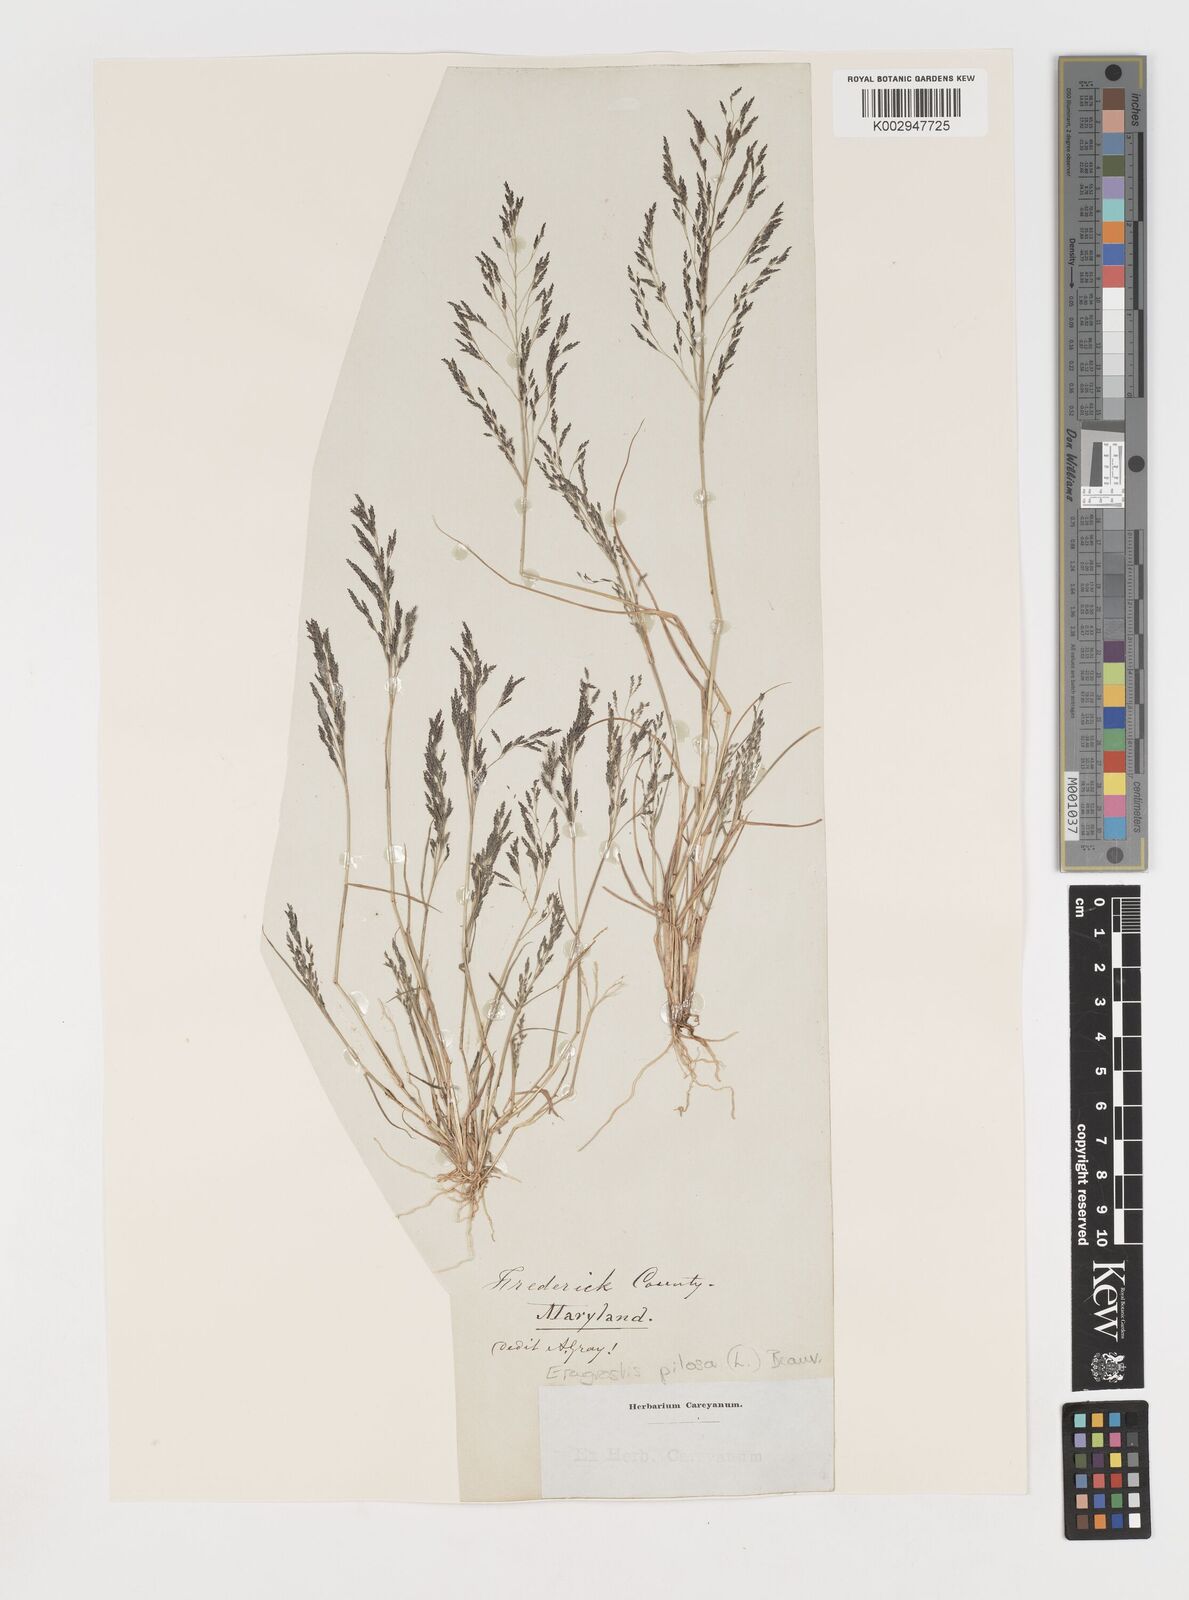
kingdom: Plantae
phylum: Tracheophyta
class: Liliopsida
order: Poales
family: Poaceae
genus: Eragrostis
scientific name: Eragrostis pilosa
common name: Indian lovegrass
